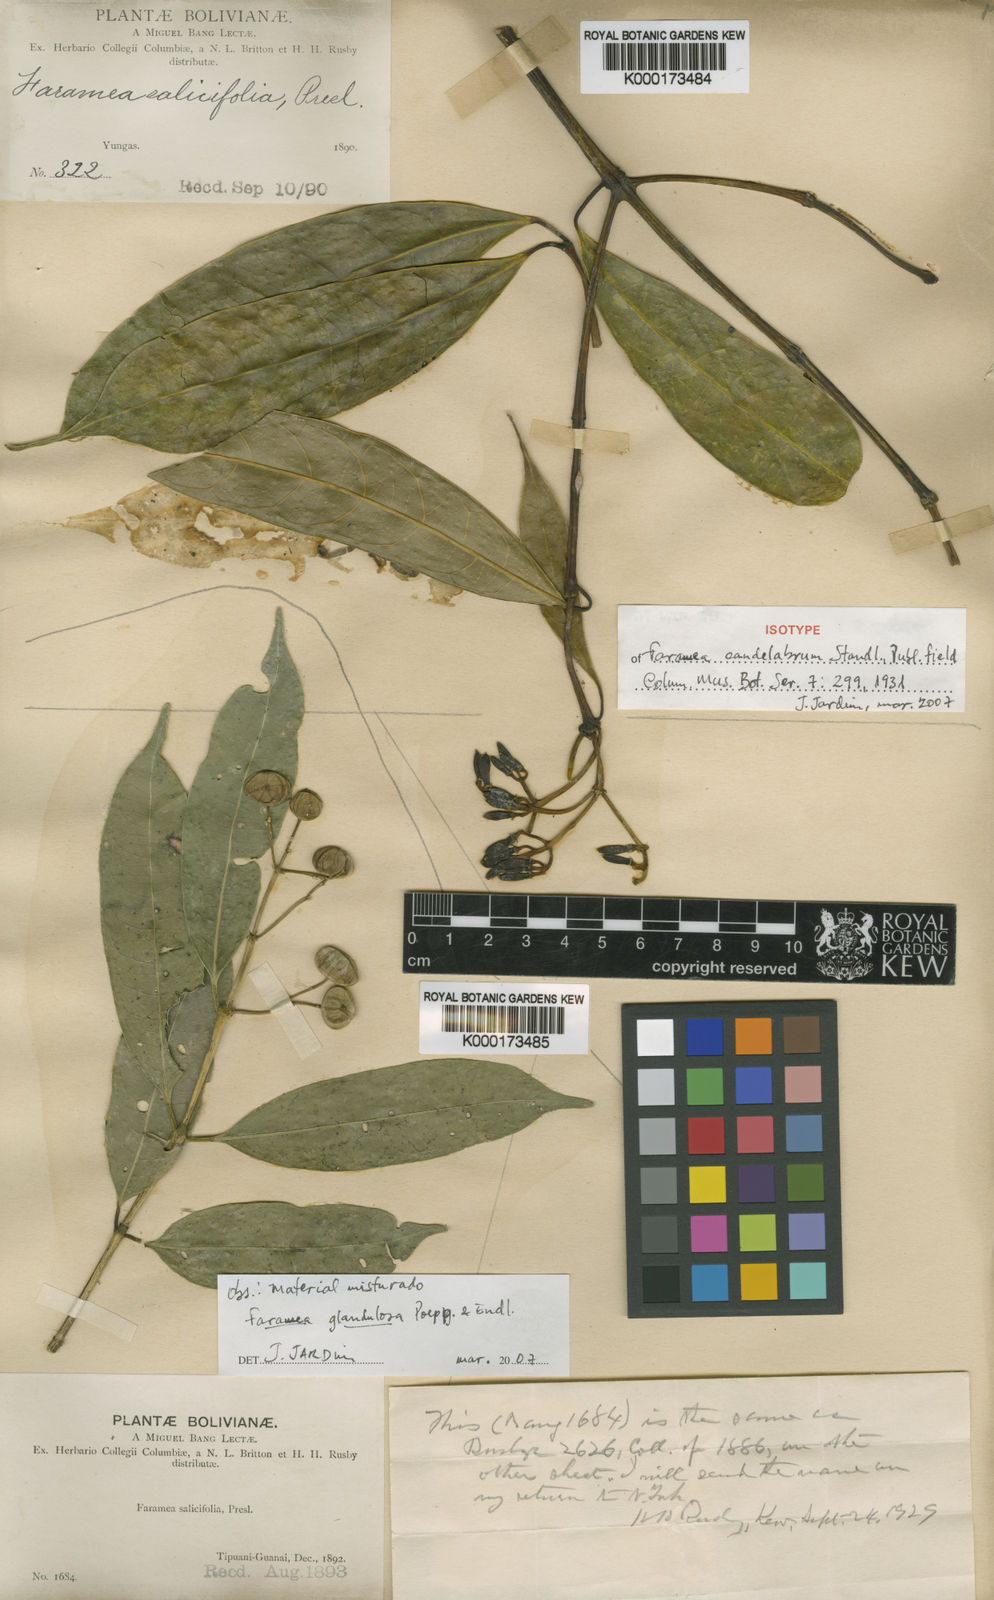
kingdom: Plantae
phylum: Tracheophyta
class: Magnoliopsida
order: Gentianales
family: Rubiaceae
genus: Faramea
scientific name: Faramea candelabrum
